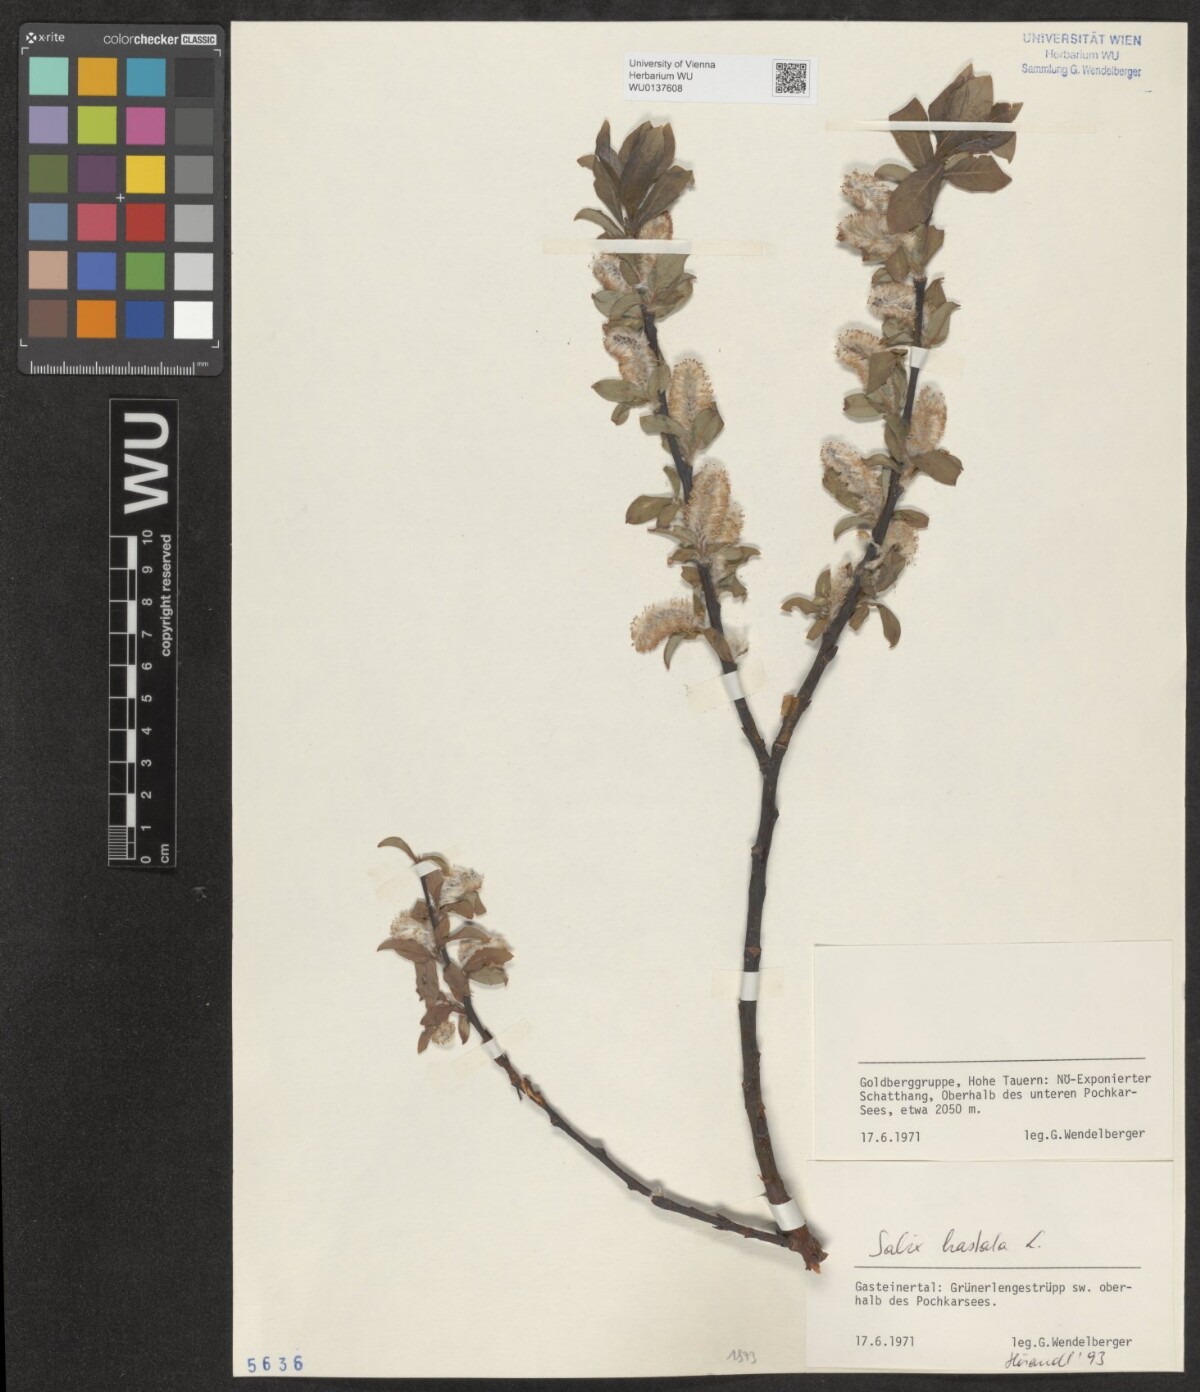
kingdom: Plantae
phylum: Tracheophyta
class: Magnoliopsida
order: Malpighiales
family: Salicaceae
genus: Salix
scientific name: Salix hastata
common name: Halberd willow
